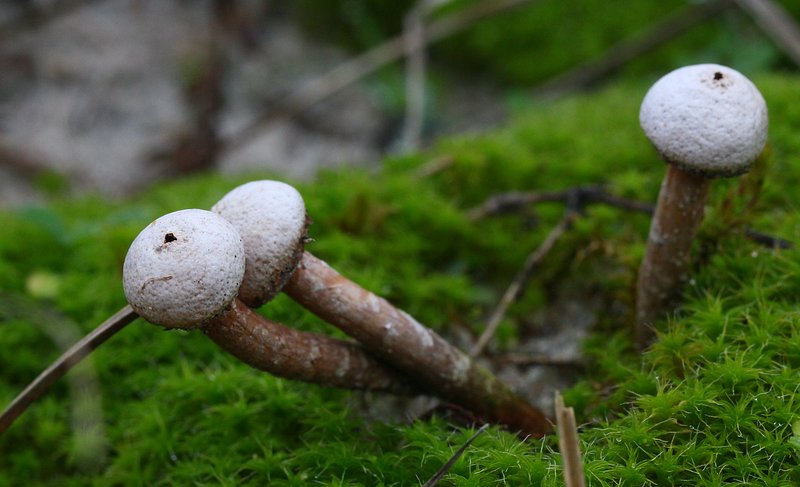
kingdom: Fungi
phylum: Basidiomycota
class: Agaricomycetes
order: Agaricales
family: Agaricaceae
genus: Tulostoma
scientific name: Tulostoma fimbriatum
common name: frynset stilkbovist
